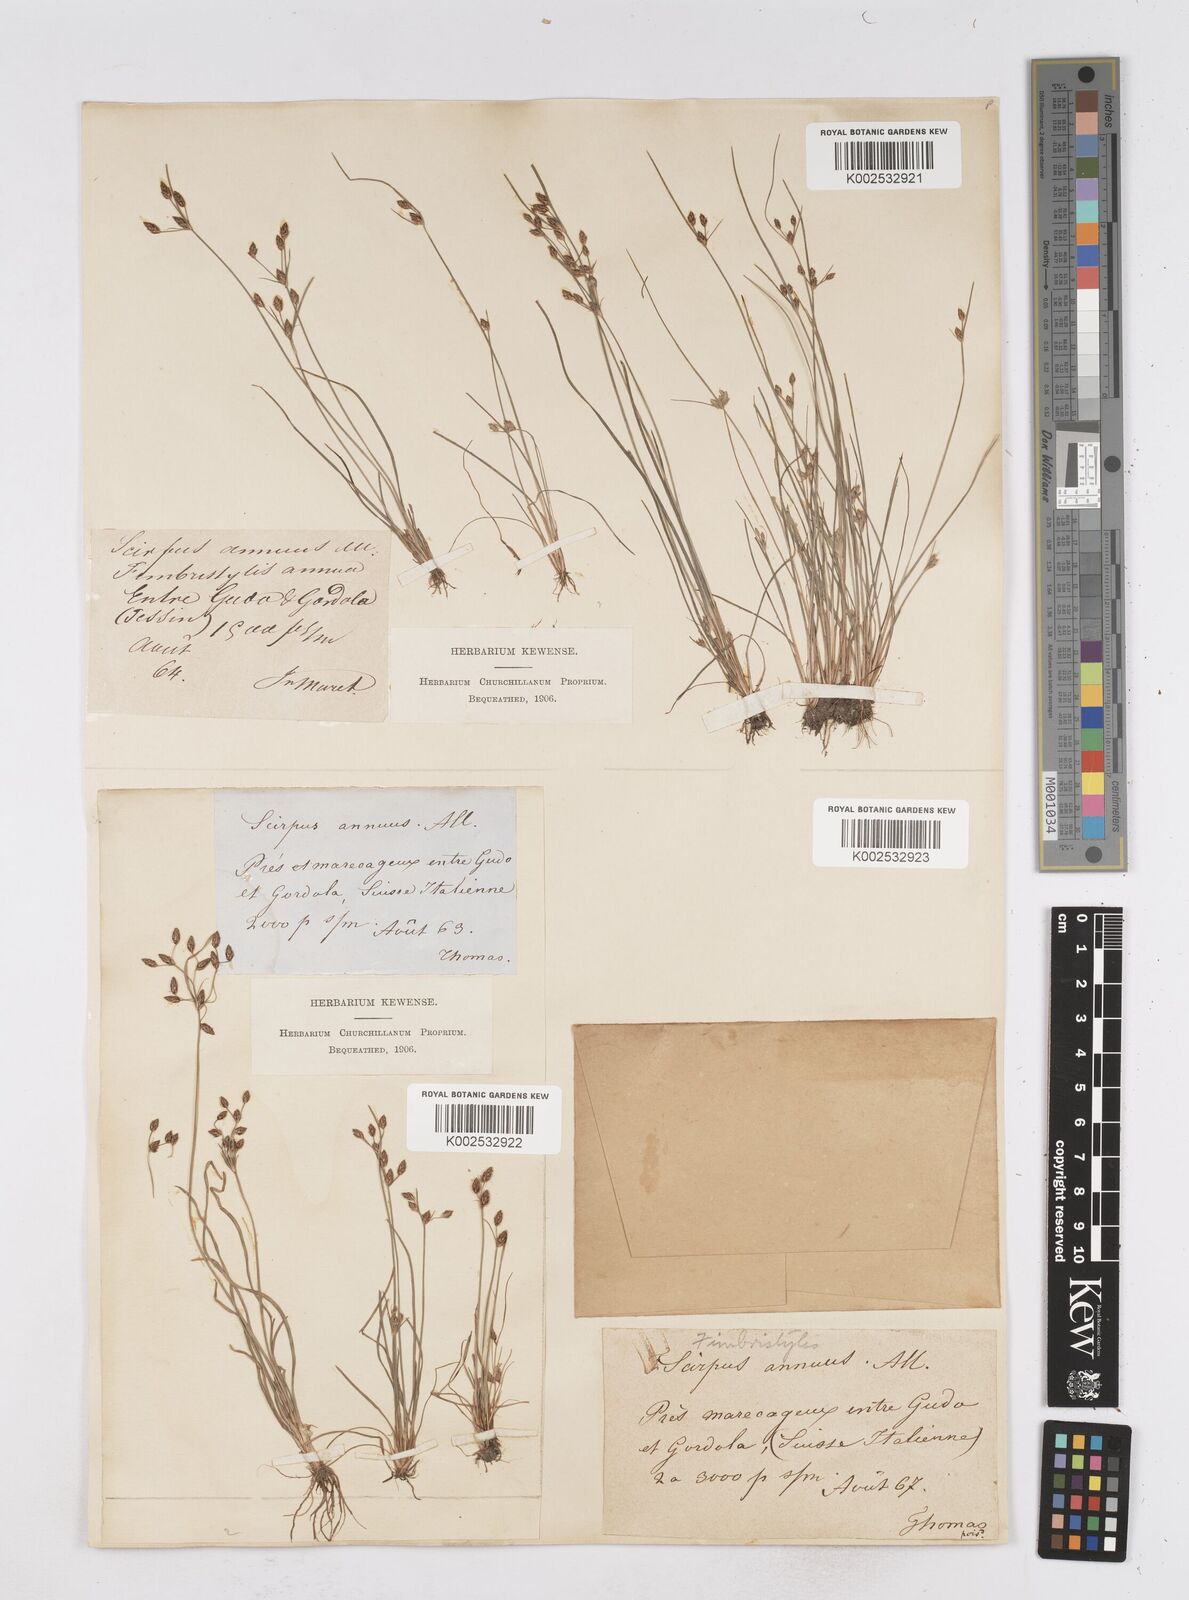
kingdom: Plantae
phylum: Tracheophyta
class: Liliopsida
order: Poales
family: Cyperaceae
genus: Fimbristylis
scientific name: Fimbristylis dichotoma
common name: Forked fimbry
